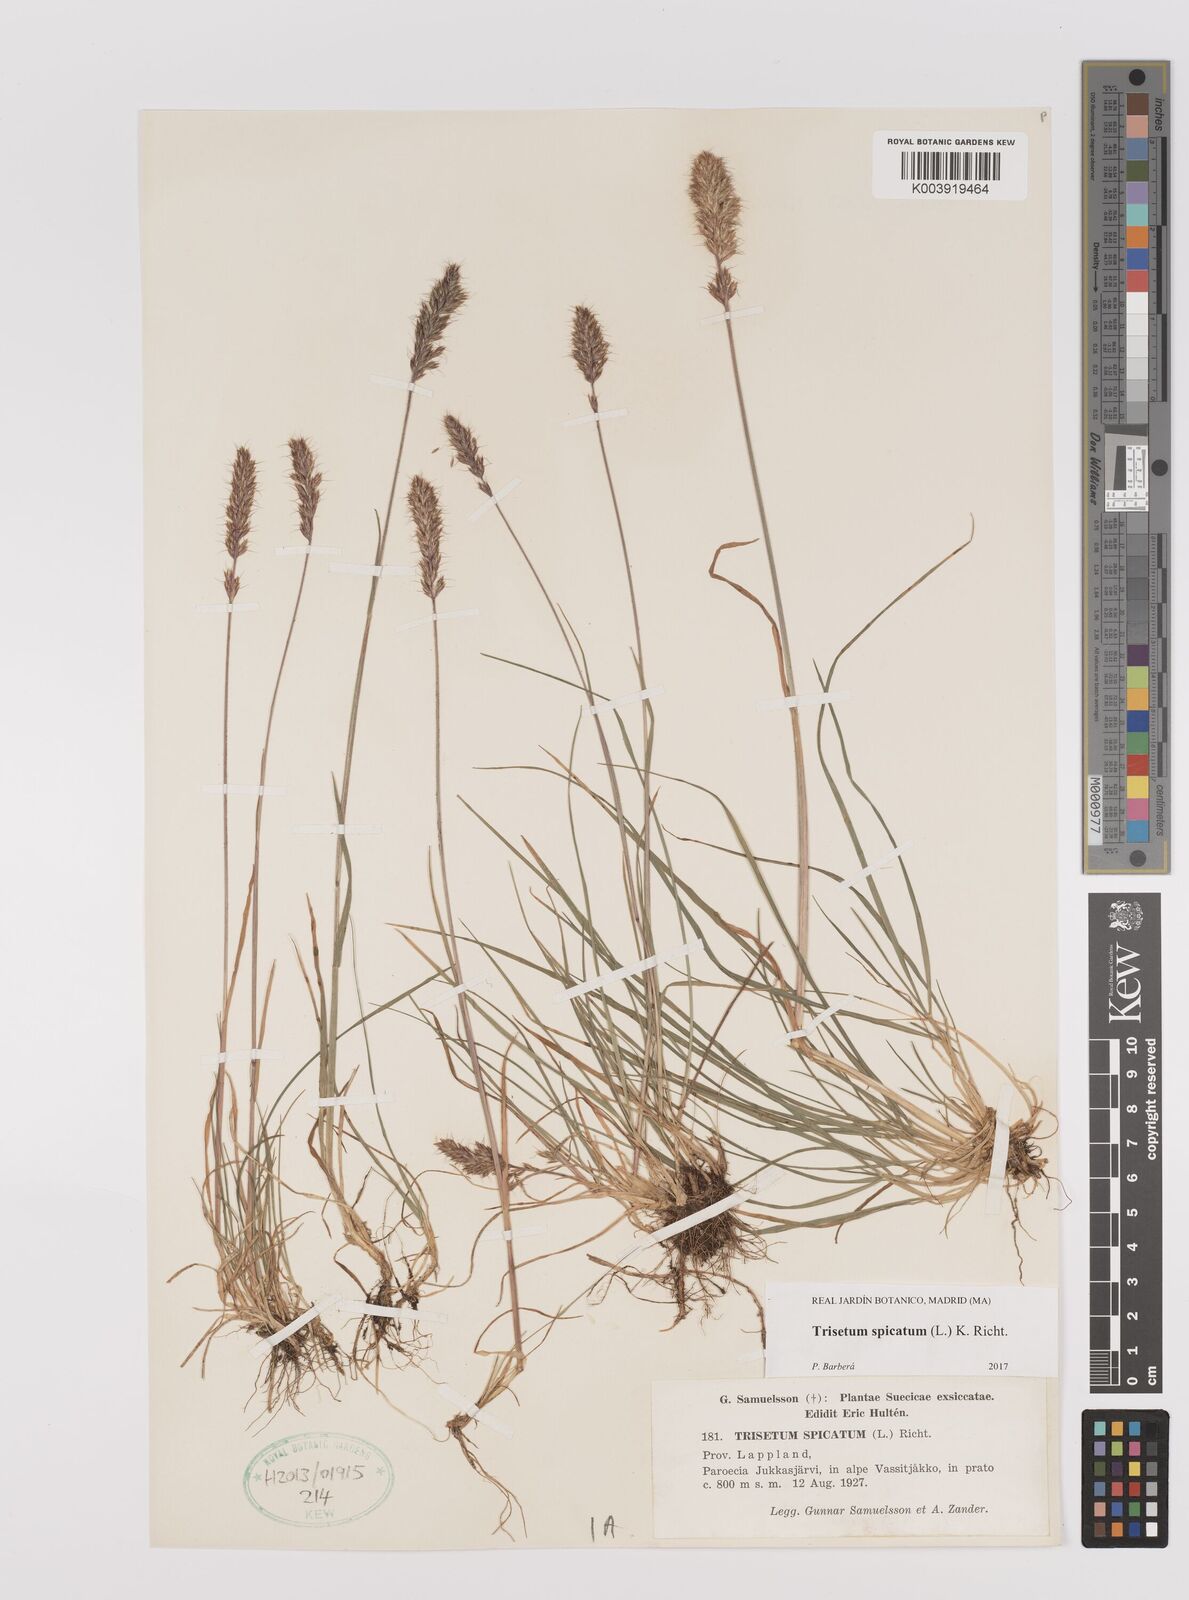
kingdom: Plantae
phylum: Tracheophyta
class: Liliopsida
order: Poales
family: Poaceae
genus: Koeleria
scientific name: Koeleria spicata
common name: Mountain trisetum
